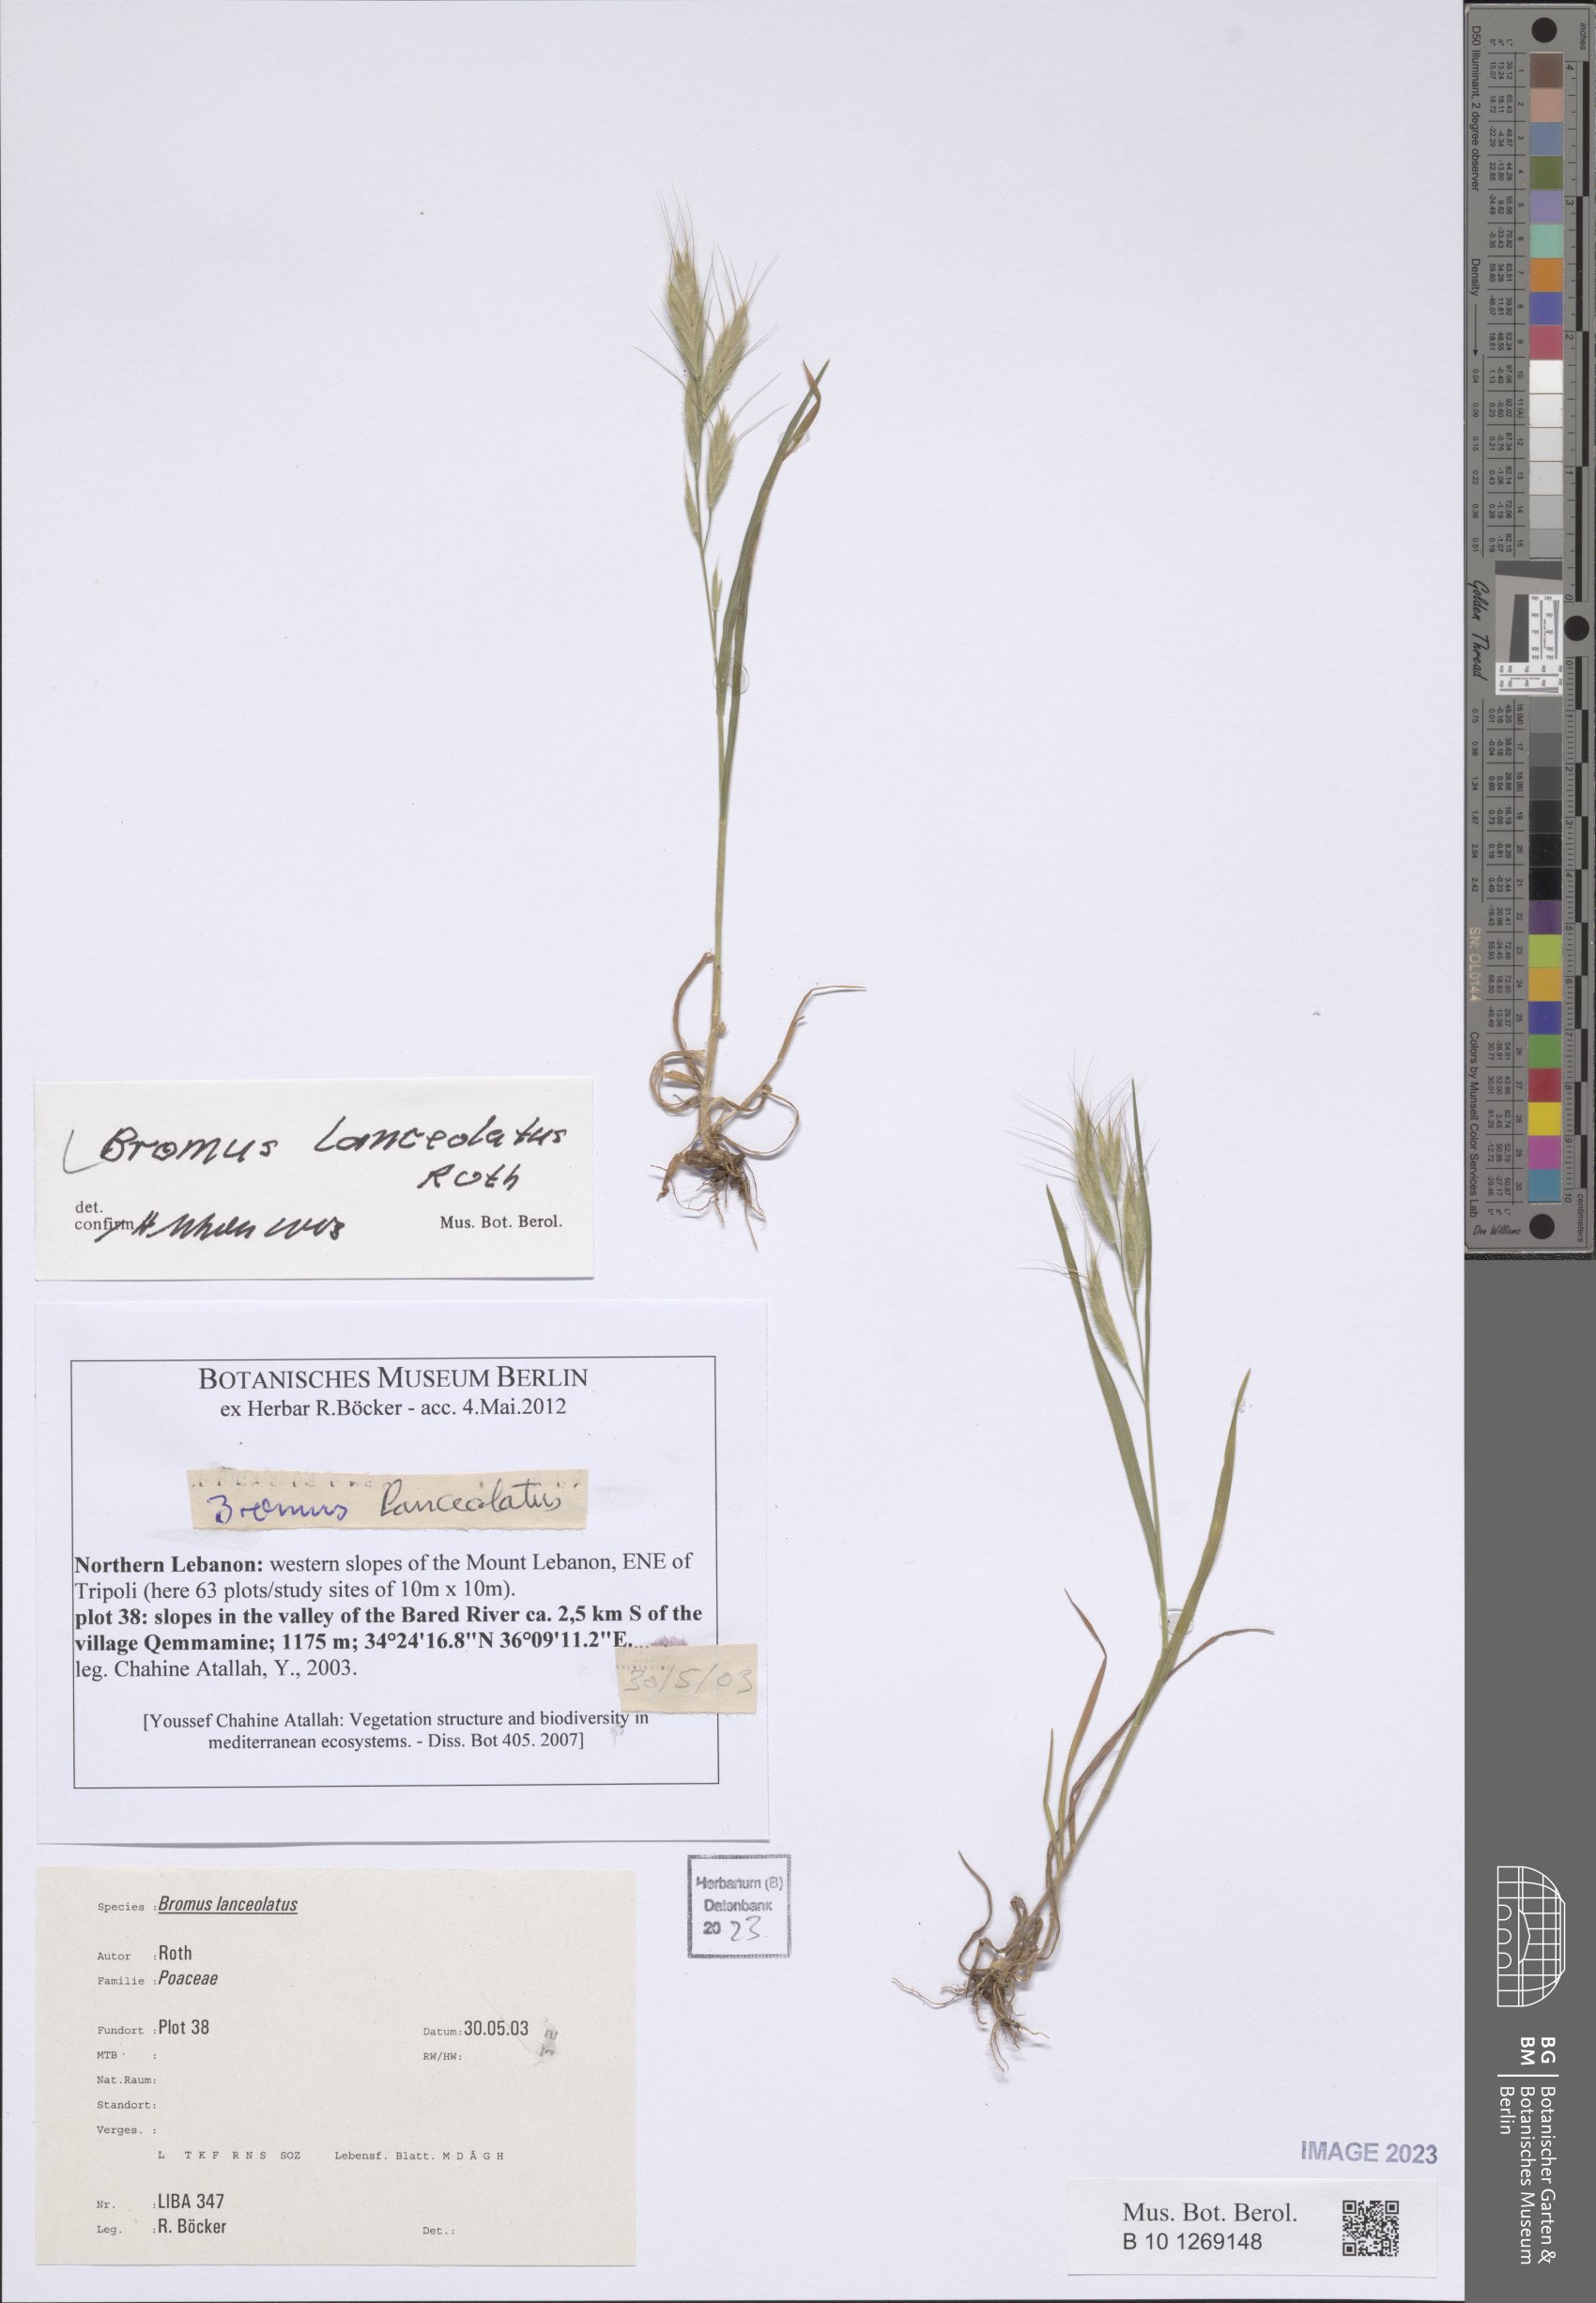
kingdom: Plantae
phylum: Tracheophyta
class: Liliopsida
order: Poales
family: Poaceae
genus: Bromus
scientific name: Bromus lanceolatus
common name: Mediterranean brome
